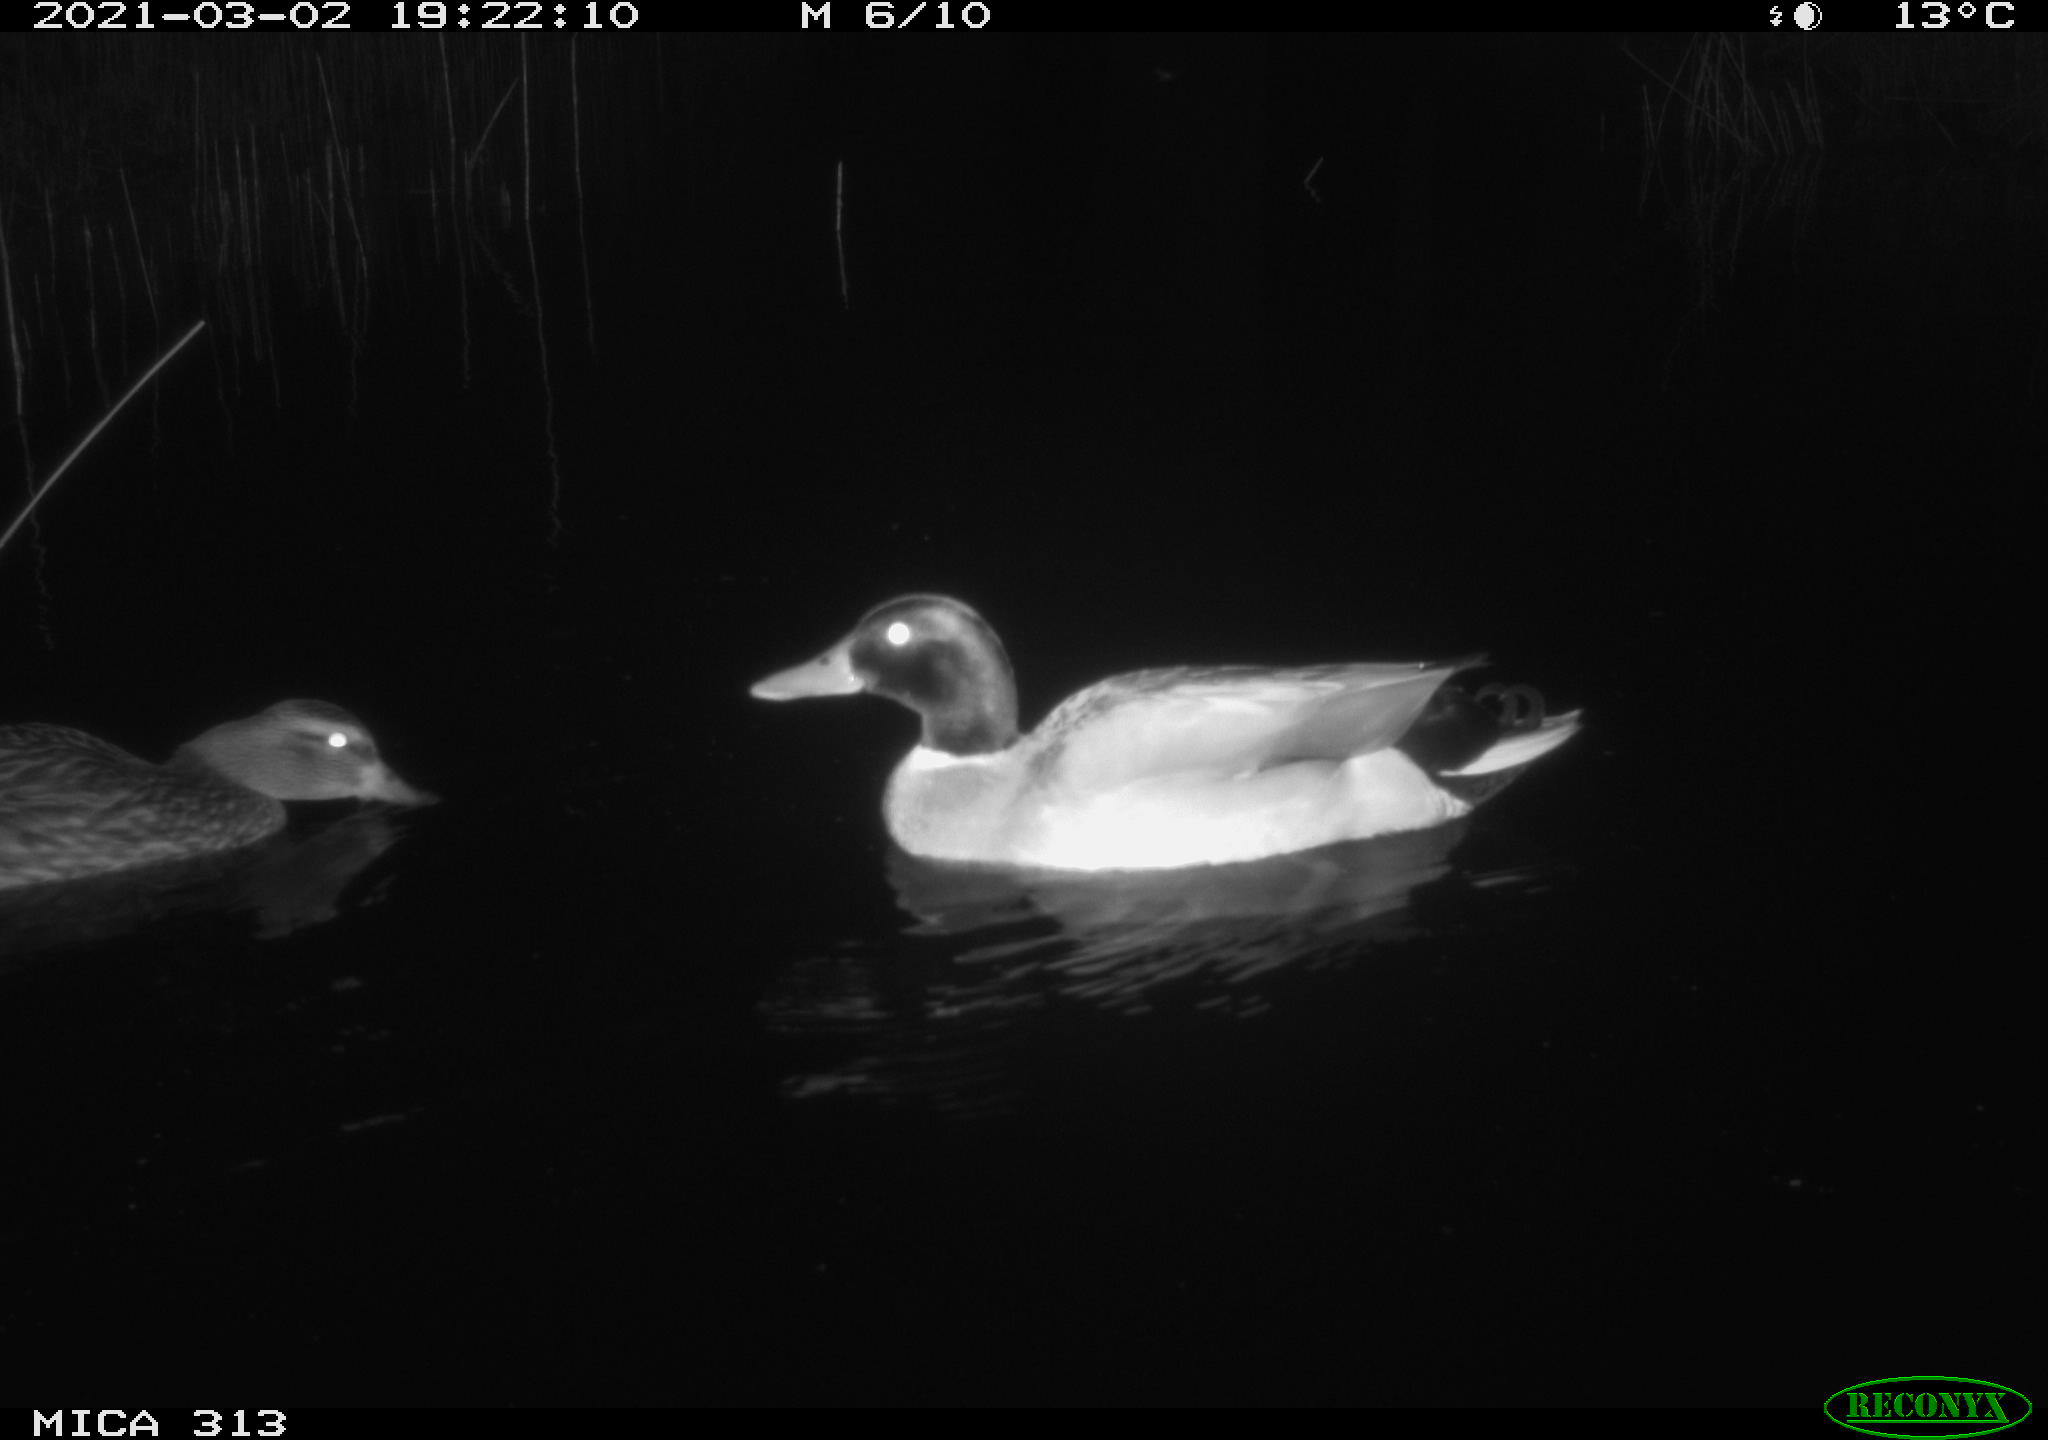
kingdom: Animalia
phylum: Chordata
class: Aves
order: Anseriformes
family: Anatidae
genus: Anas
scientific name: Anas
